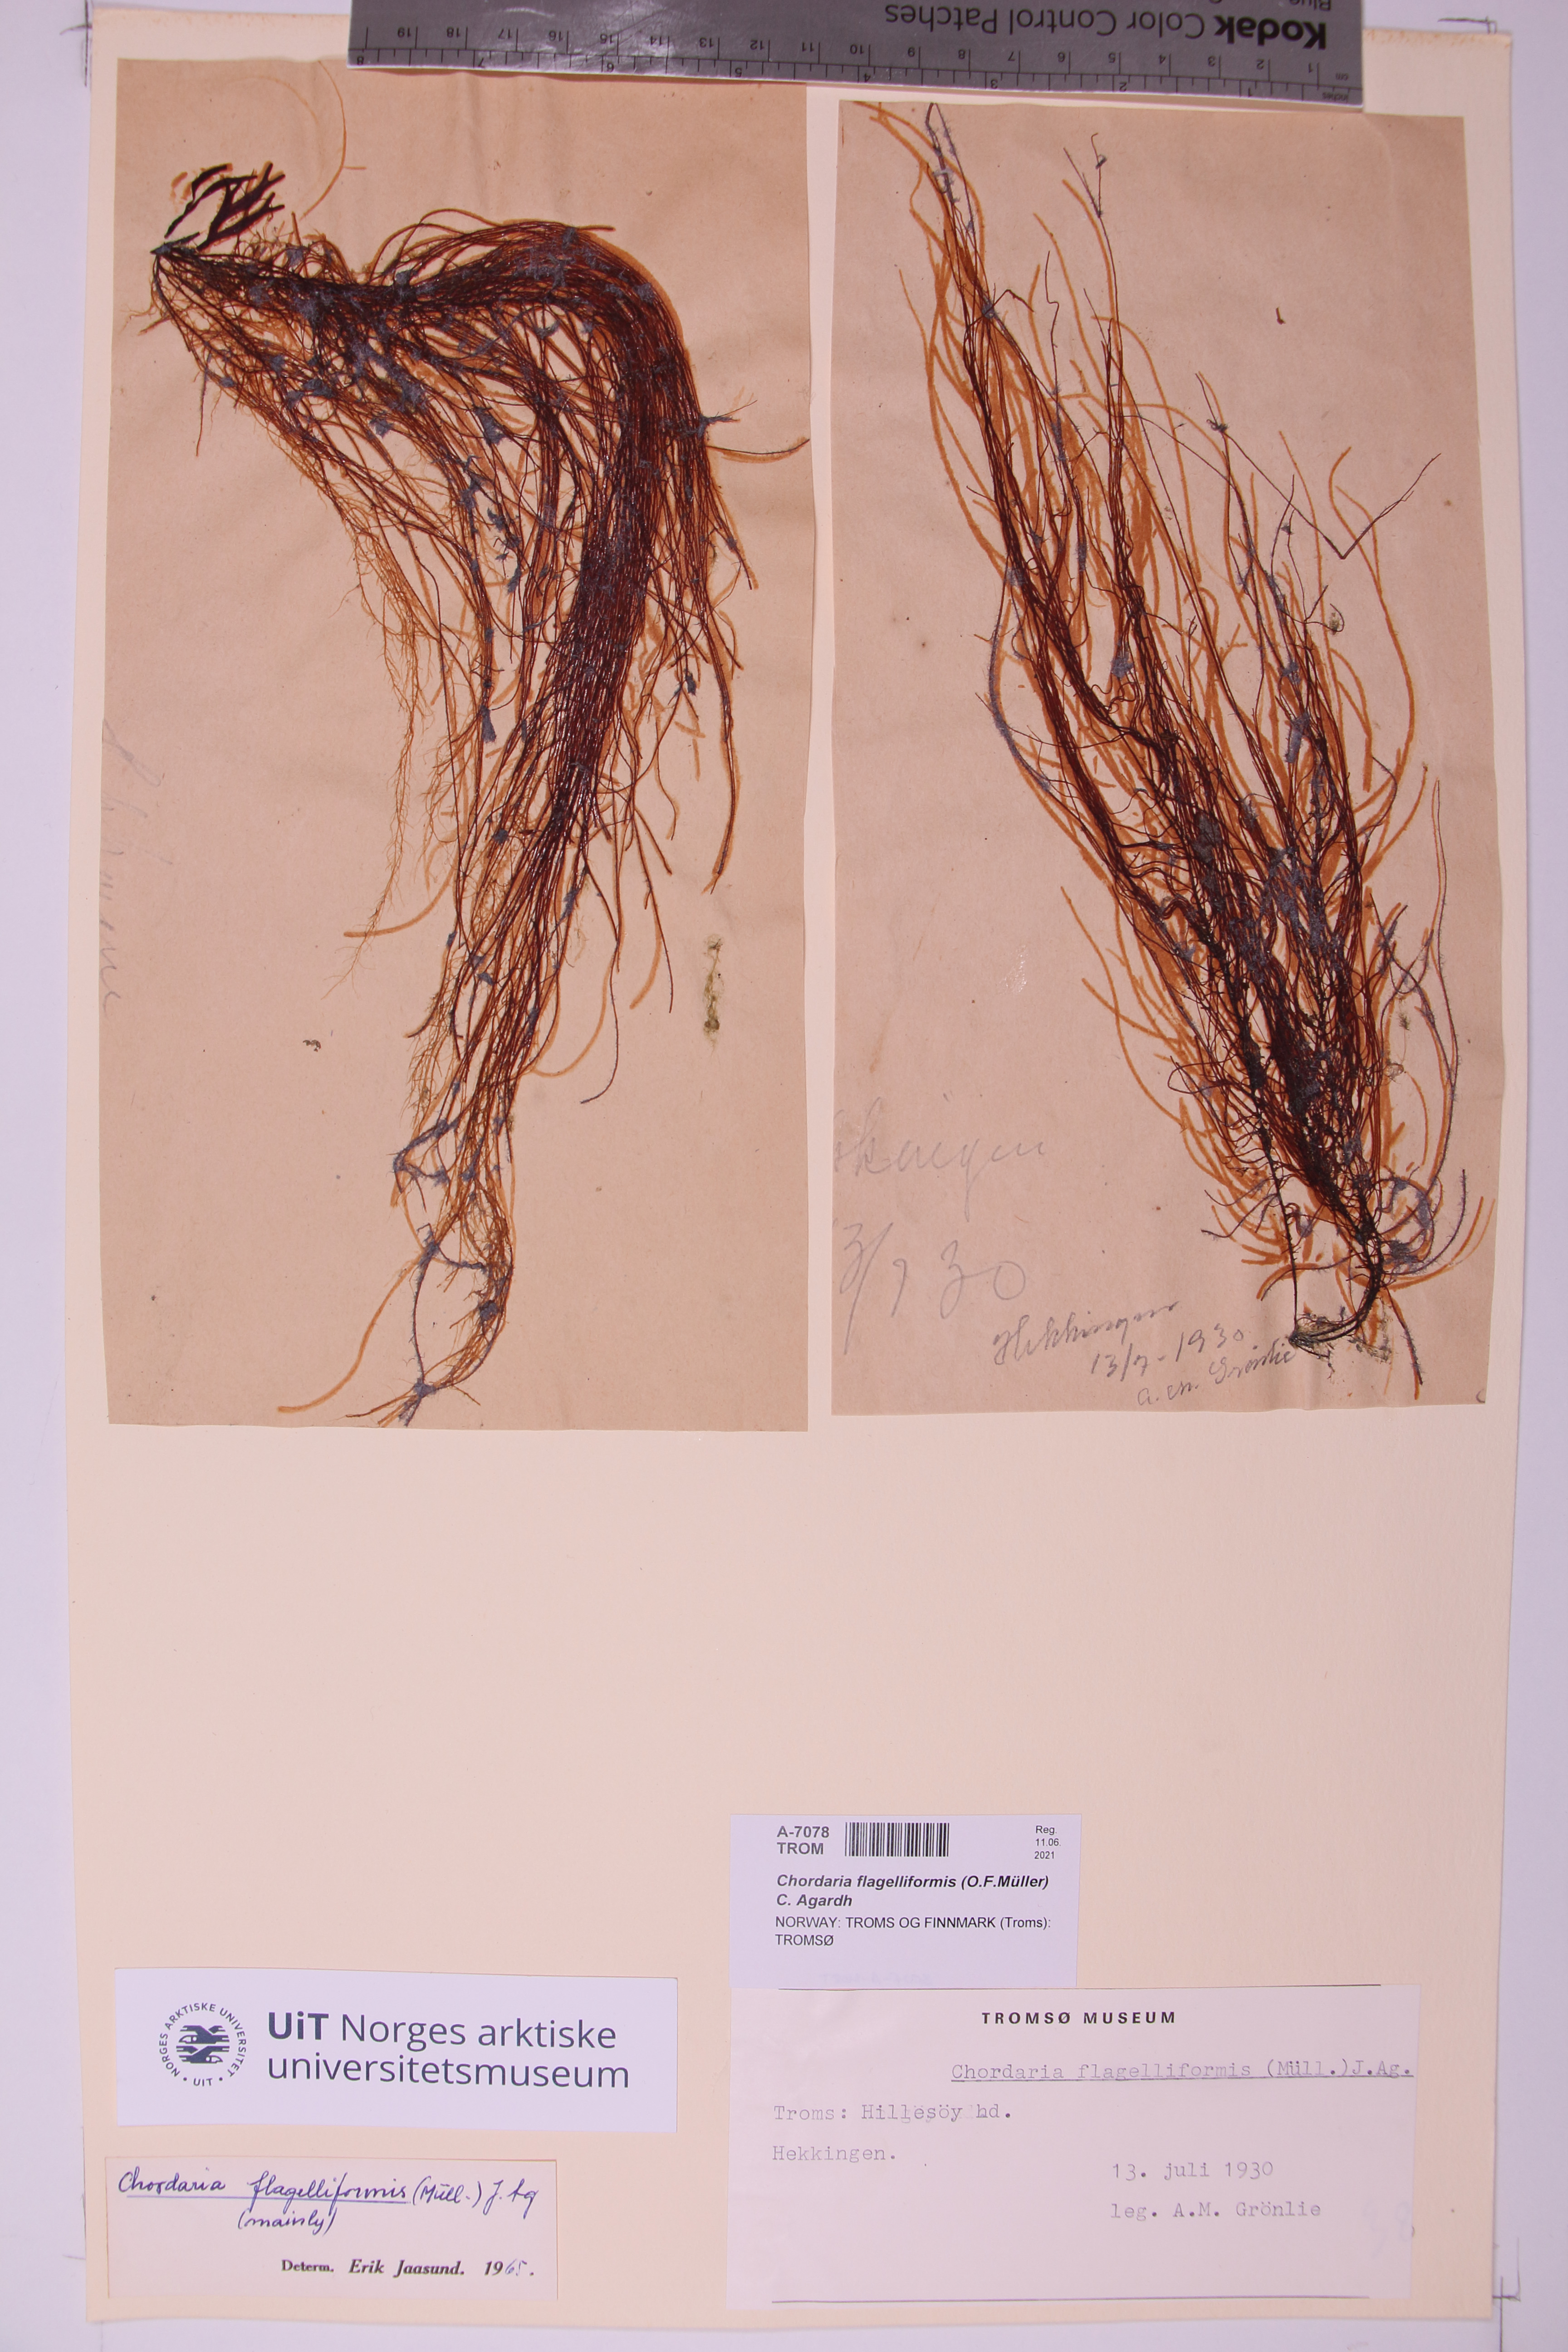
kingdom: Chromista
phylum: Ochrophyta
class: Phaeophyceae
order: Ectocarpales
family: Chordariaceae
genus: Chordaria
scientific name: Chordaria flagelliformis
